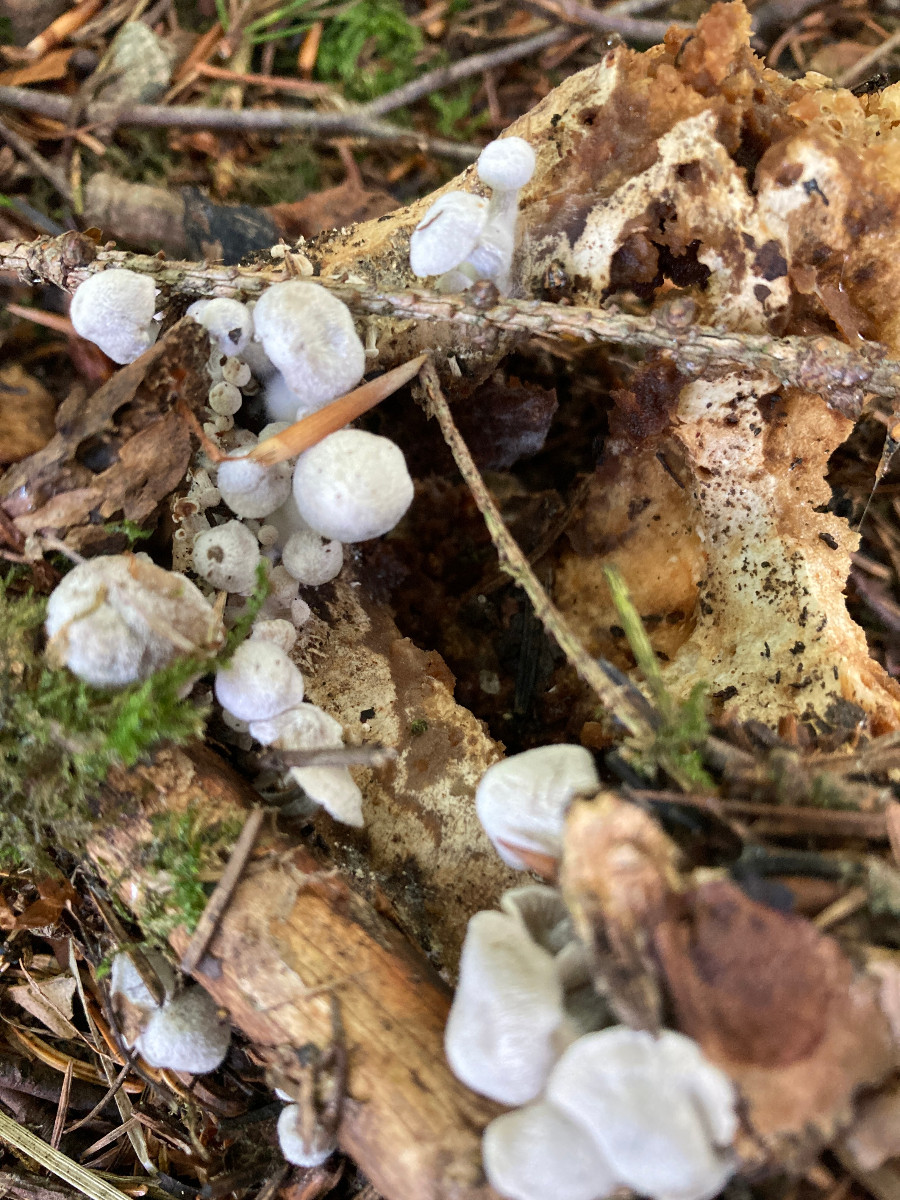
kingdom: Fungi
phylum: Basidiomycota
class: Agaricomycetes
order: Agaricales
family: Lyophyllaceae
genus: Asterophora
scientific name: Asterophora parasitica
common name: grå snyltehat
